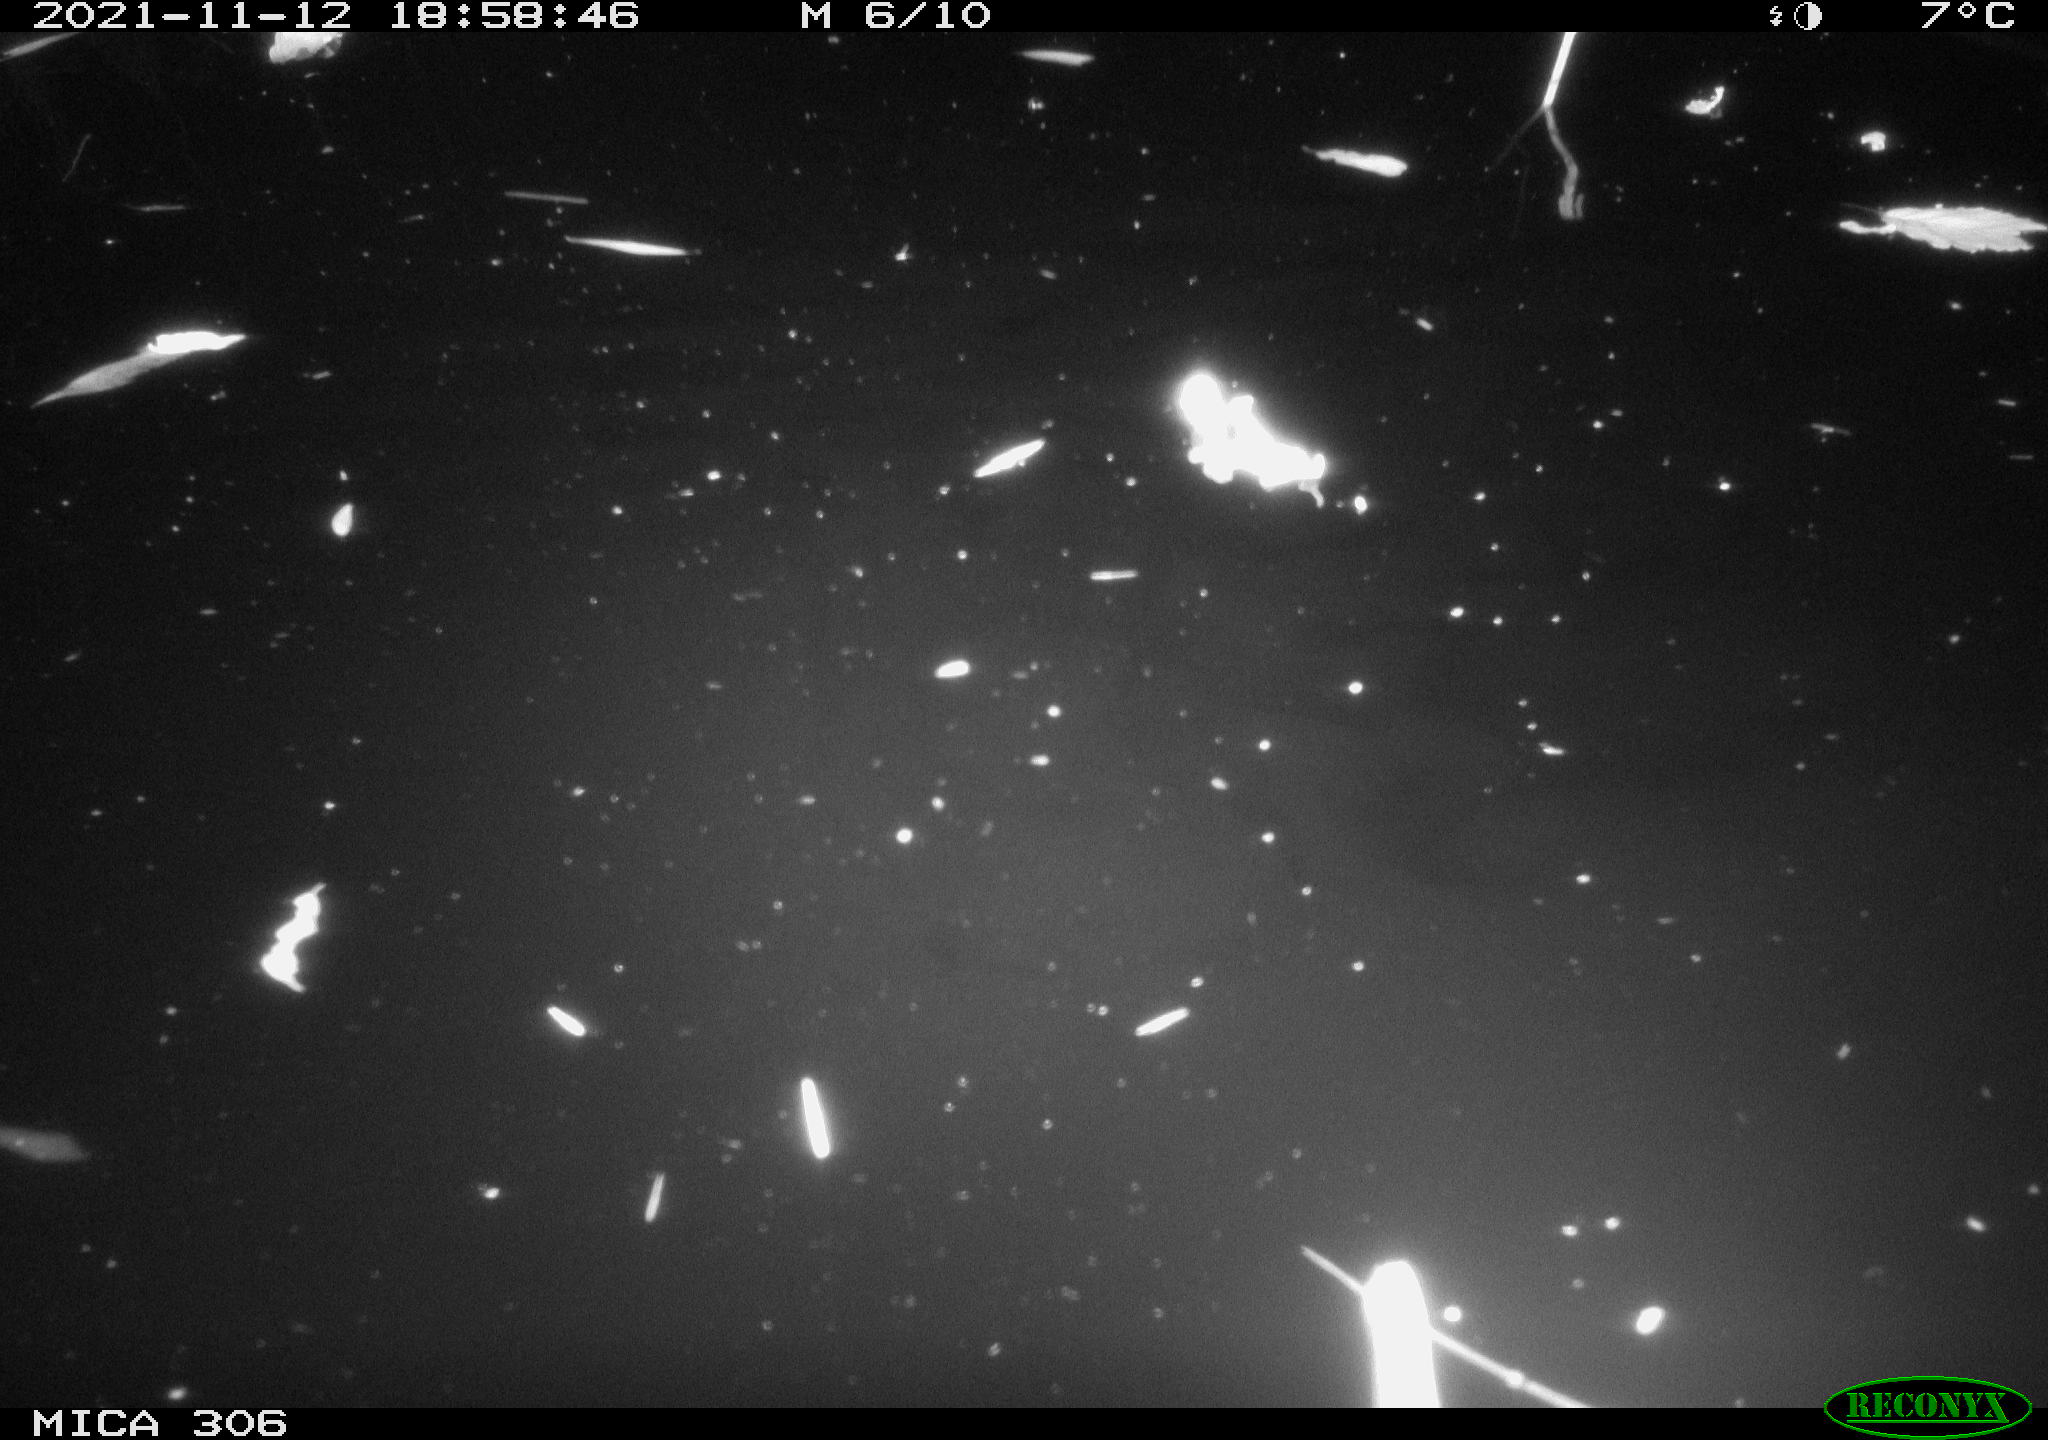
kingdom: Animalia
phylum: Chordata
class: Mammalia
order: Rodentia
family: Muridae
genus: Rattus
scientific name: Rattus norvegicus
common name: Brown rat
